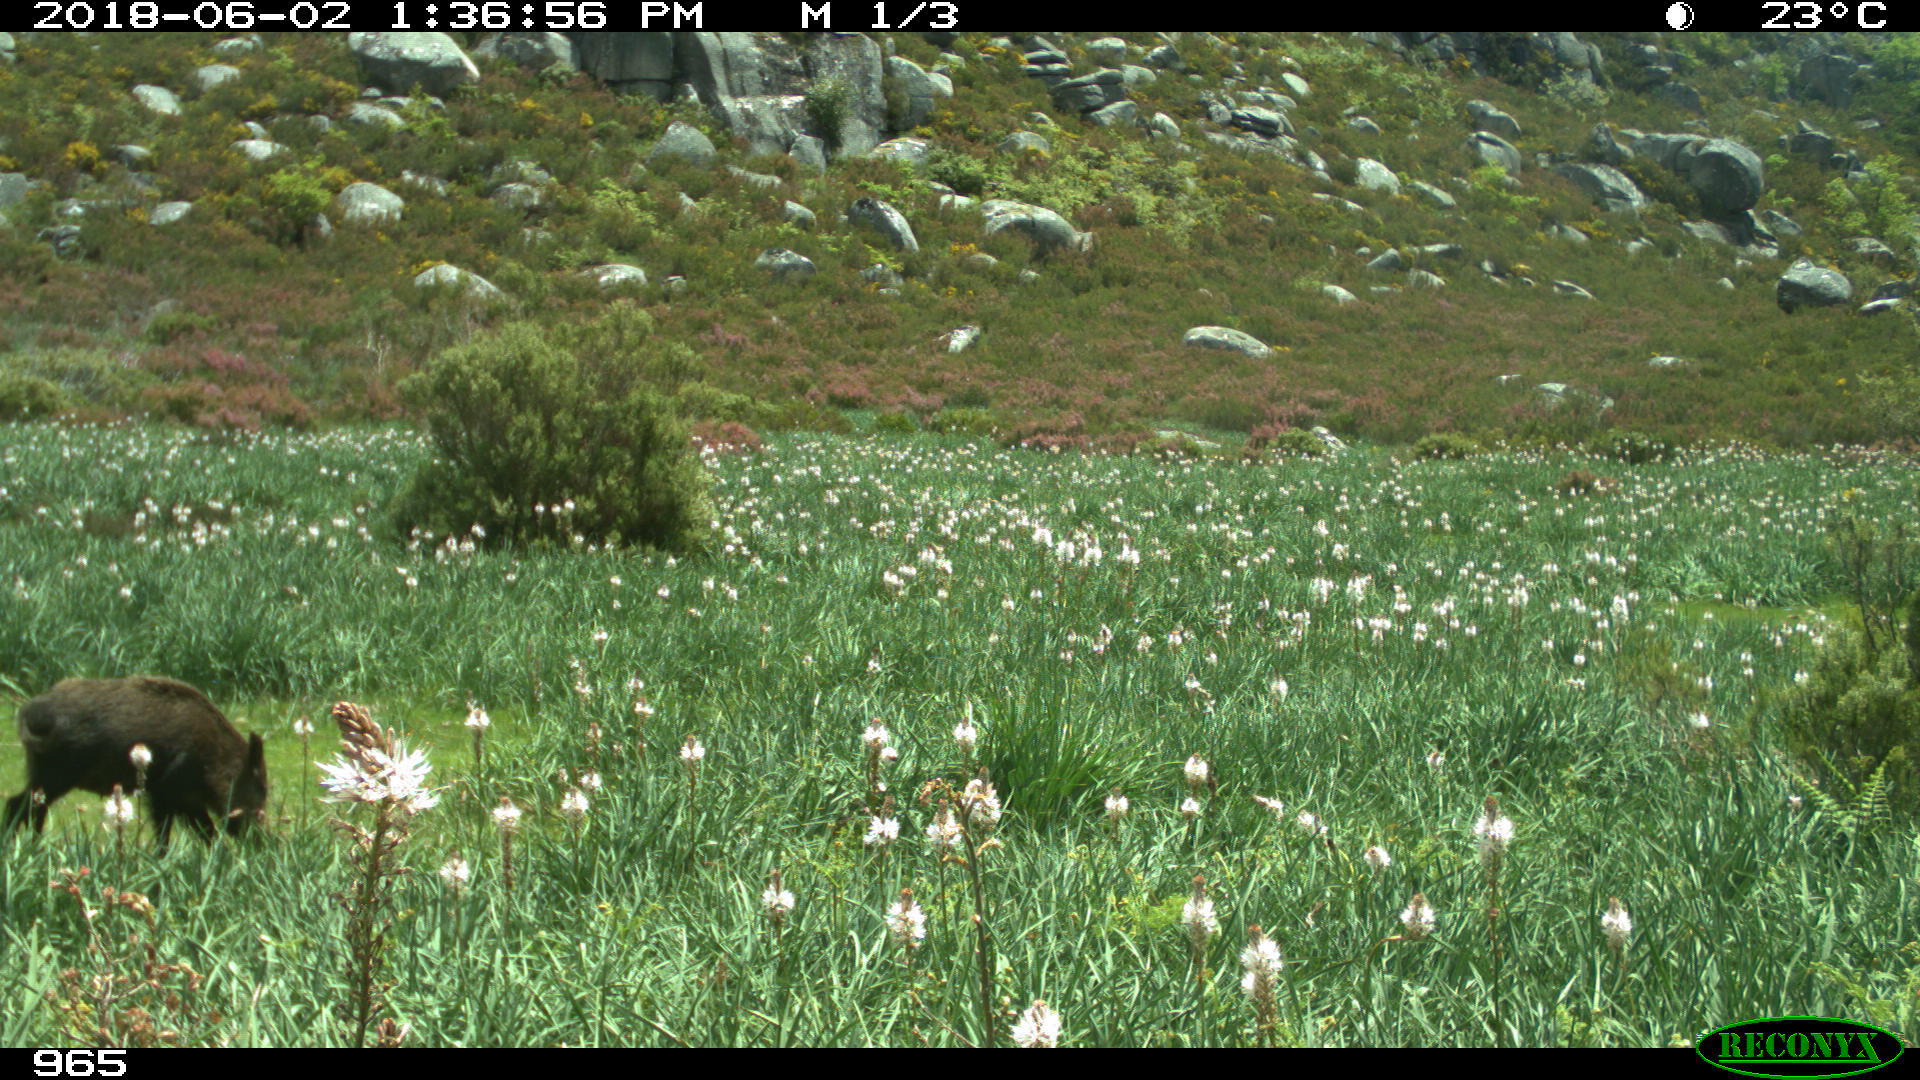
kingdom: Animalia
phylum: Chordata
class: Mammalia
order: Artiodactyla
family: Suidae
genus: Sus
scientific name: Sus scrofa
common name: Wild boar
